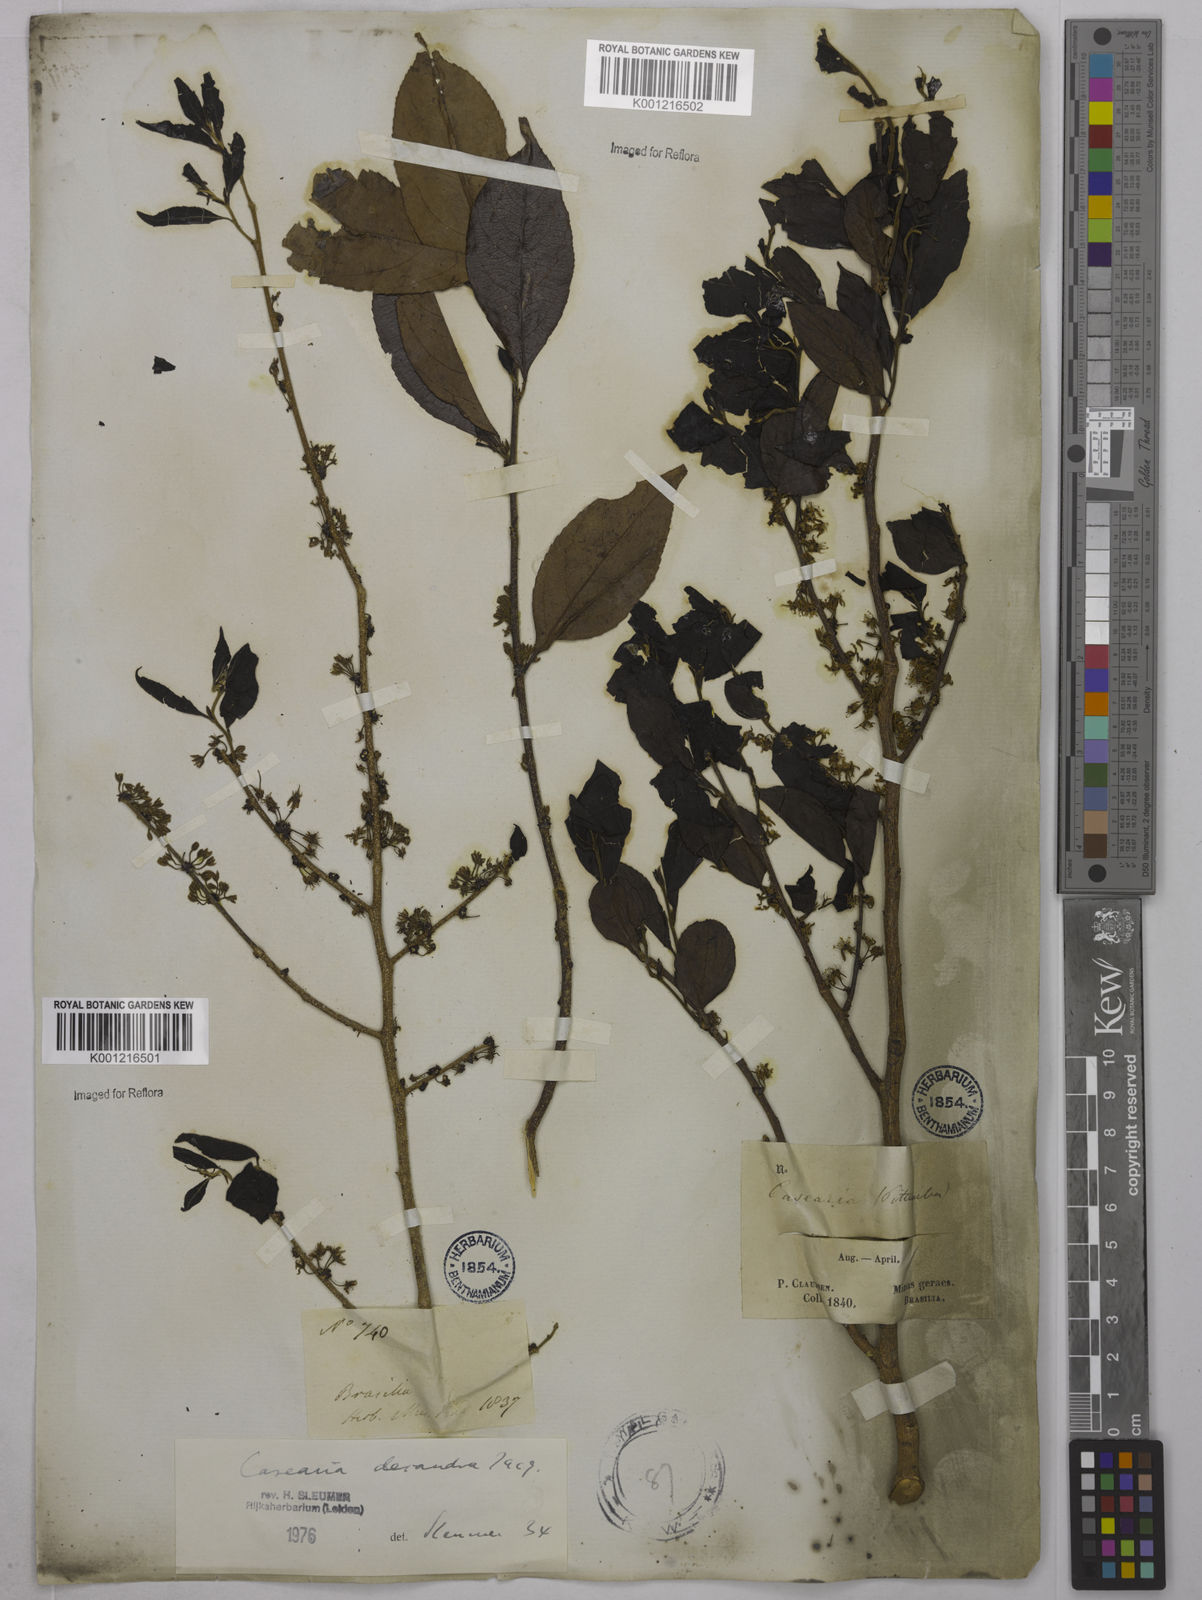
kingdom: Plantae
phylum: Tracheophyta
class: Magnoliopsida
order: Malpighiales
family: Salicaceae
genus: Casearia
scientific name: Casearia decandra
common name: Crack open
